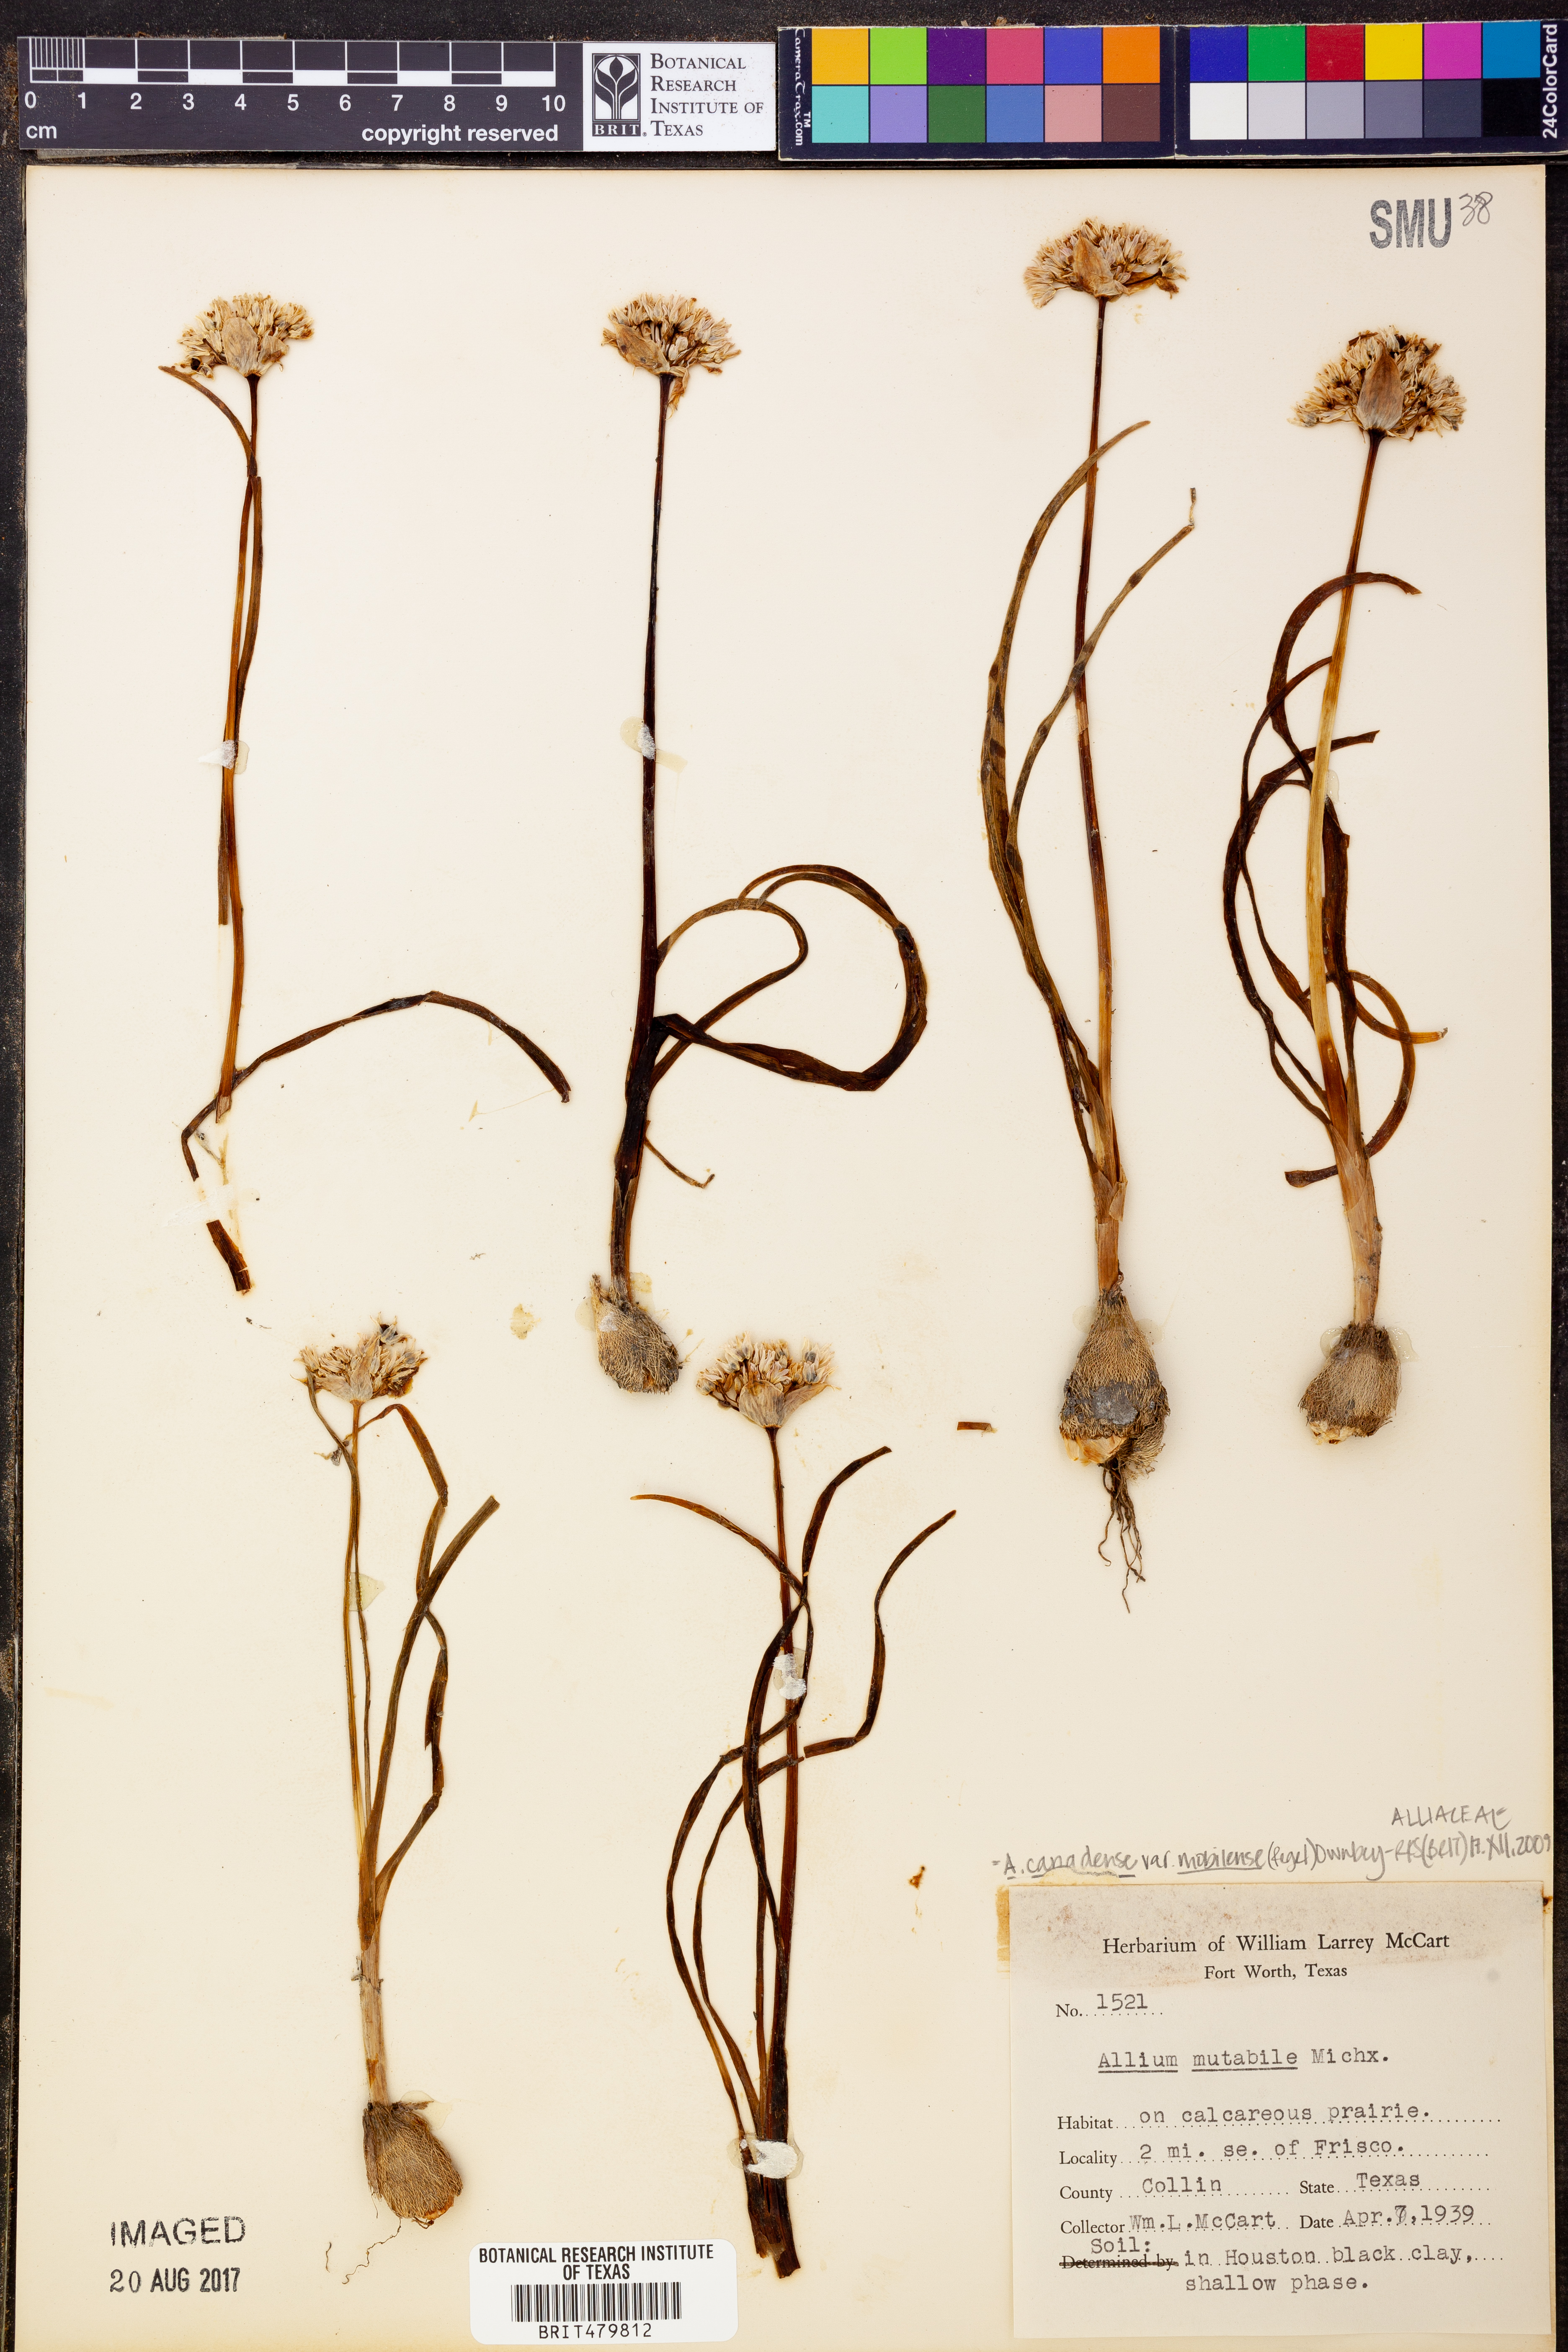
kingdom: Plantae
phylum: Tracheophyta
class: Liliopsida
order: Asparagales
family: Amaryllidaceae
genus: Allium
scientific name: Allium canadense
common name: Meadow garlic
